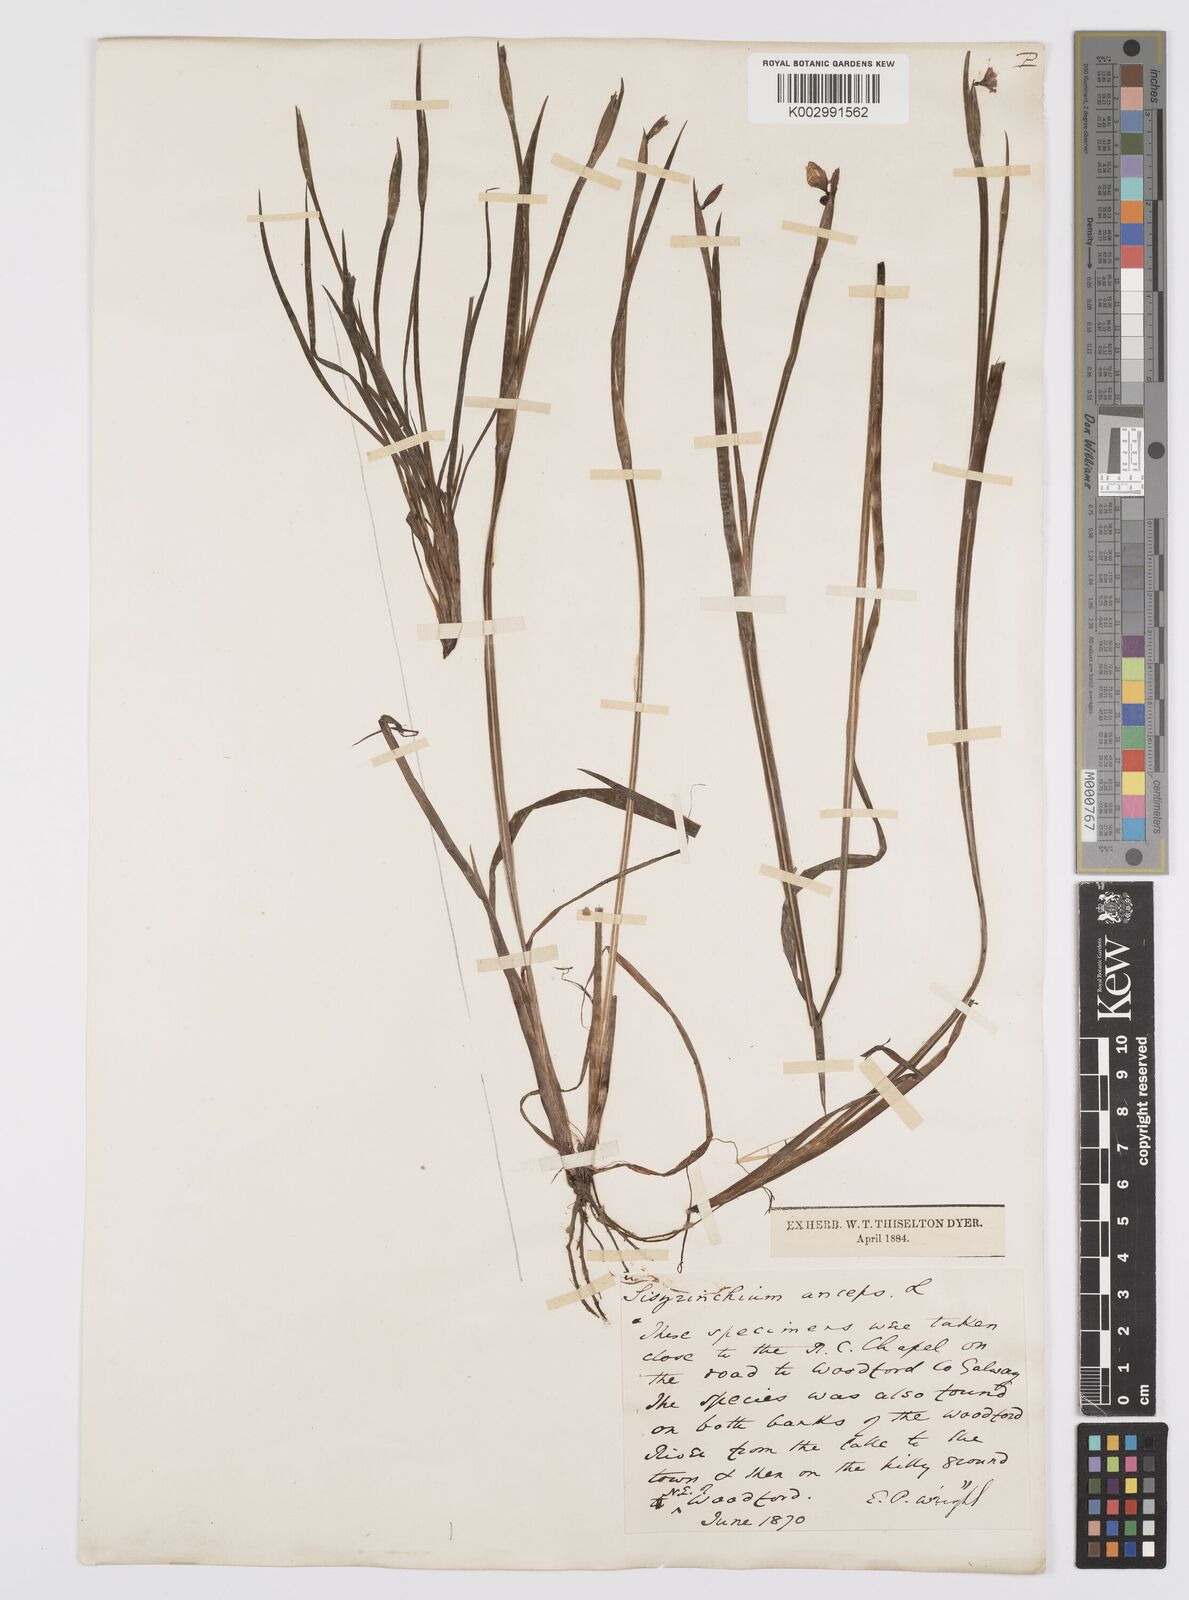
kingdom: Plantae
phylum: Tracheophyta
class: Liliopsida
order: Asparagales
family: Iridaceae
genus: Sisyrinchium
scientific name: Sisyrinchium angustifolium
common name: Narrow-leaf blue-eyed-grass
